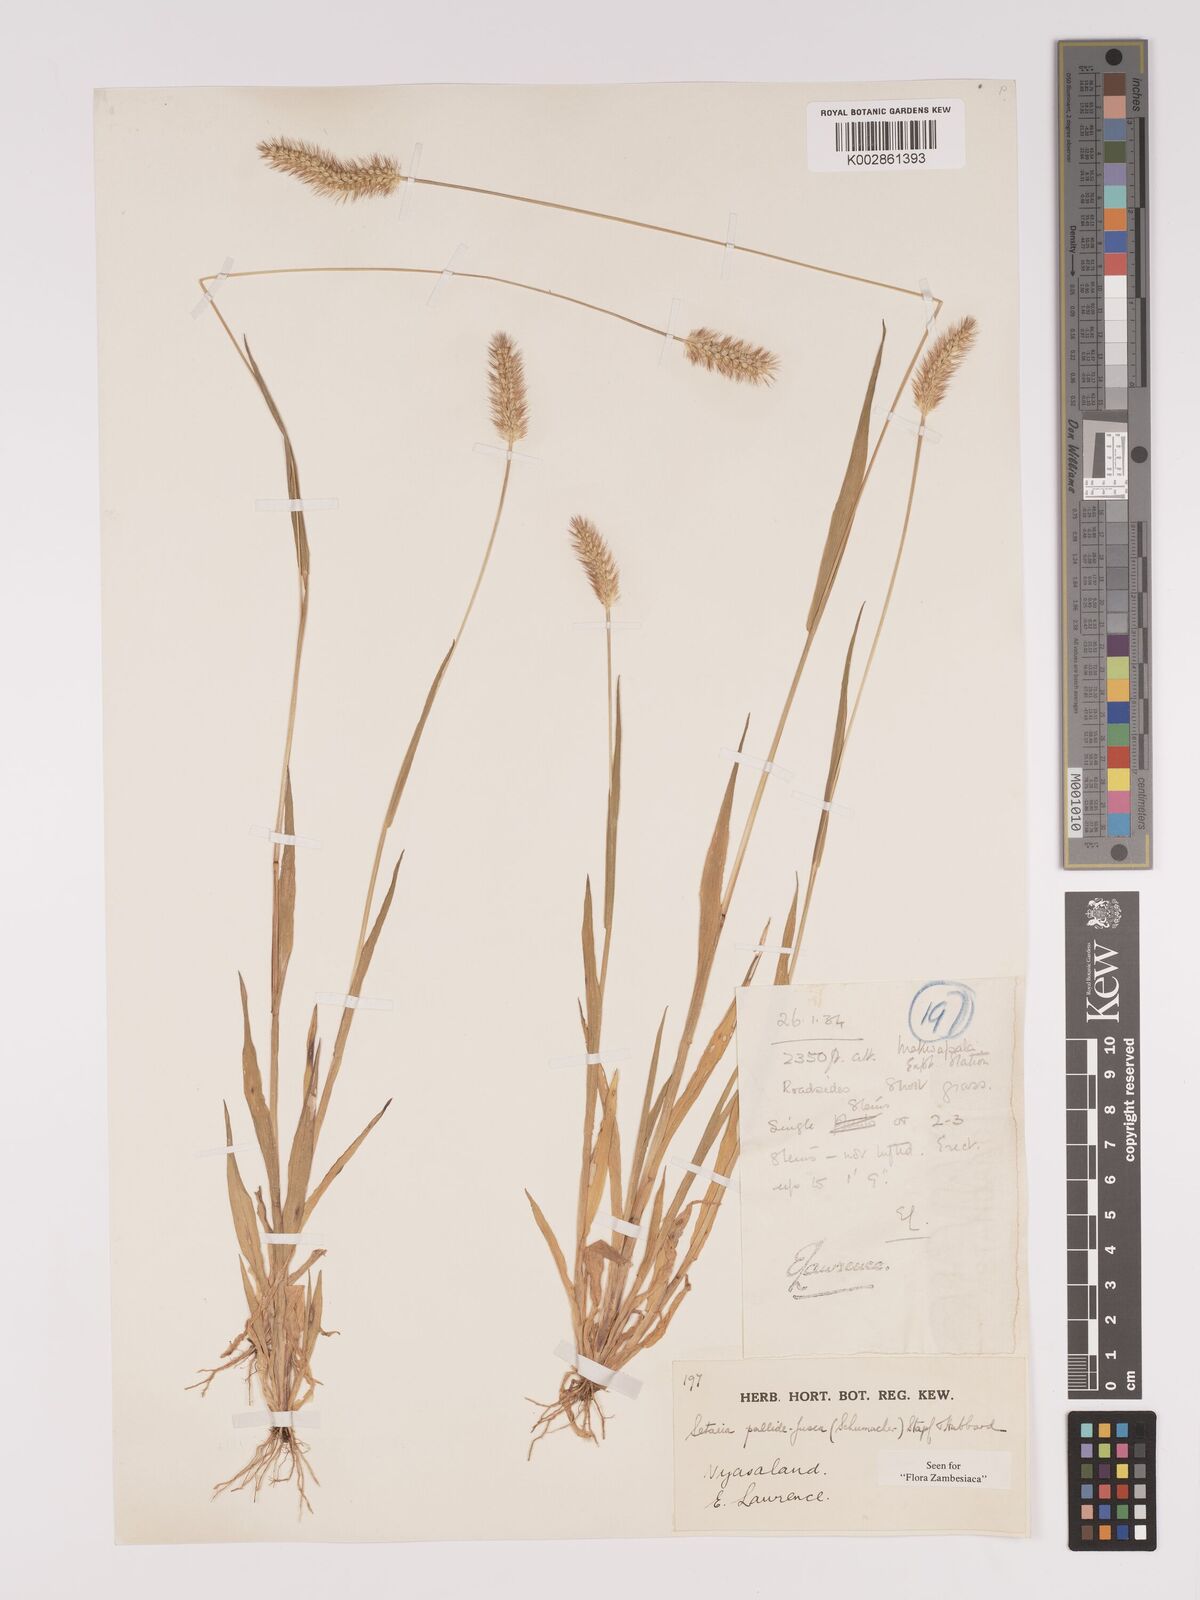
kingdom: Plantae
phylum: Tracheophyta
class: Liliopsida
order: Poales
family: Poaceae
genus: Setaria
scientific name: Setaria pumila
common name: Yellow bristle-grass
